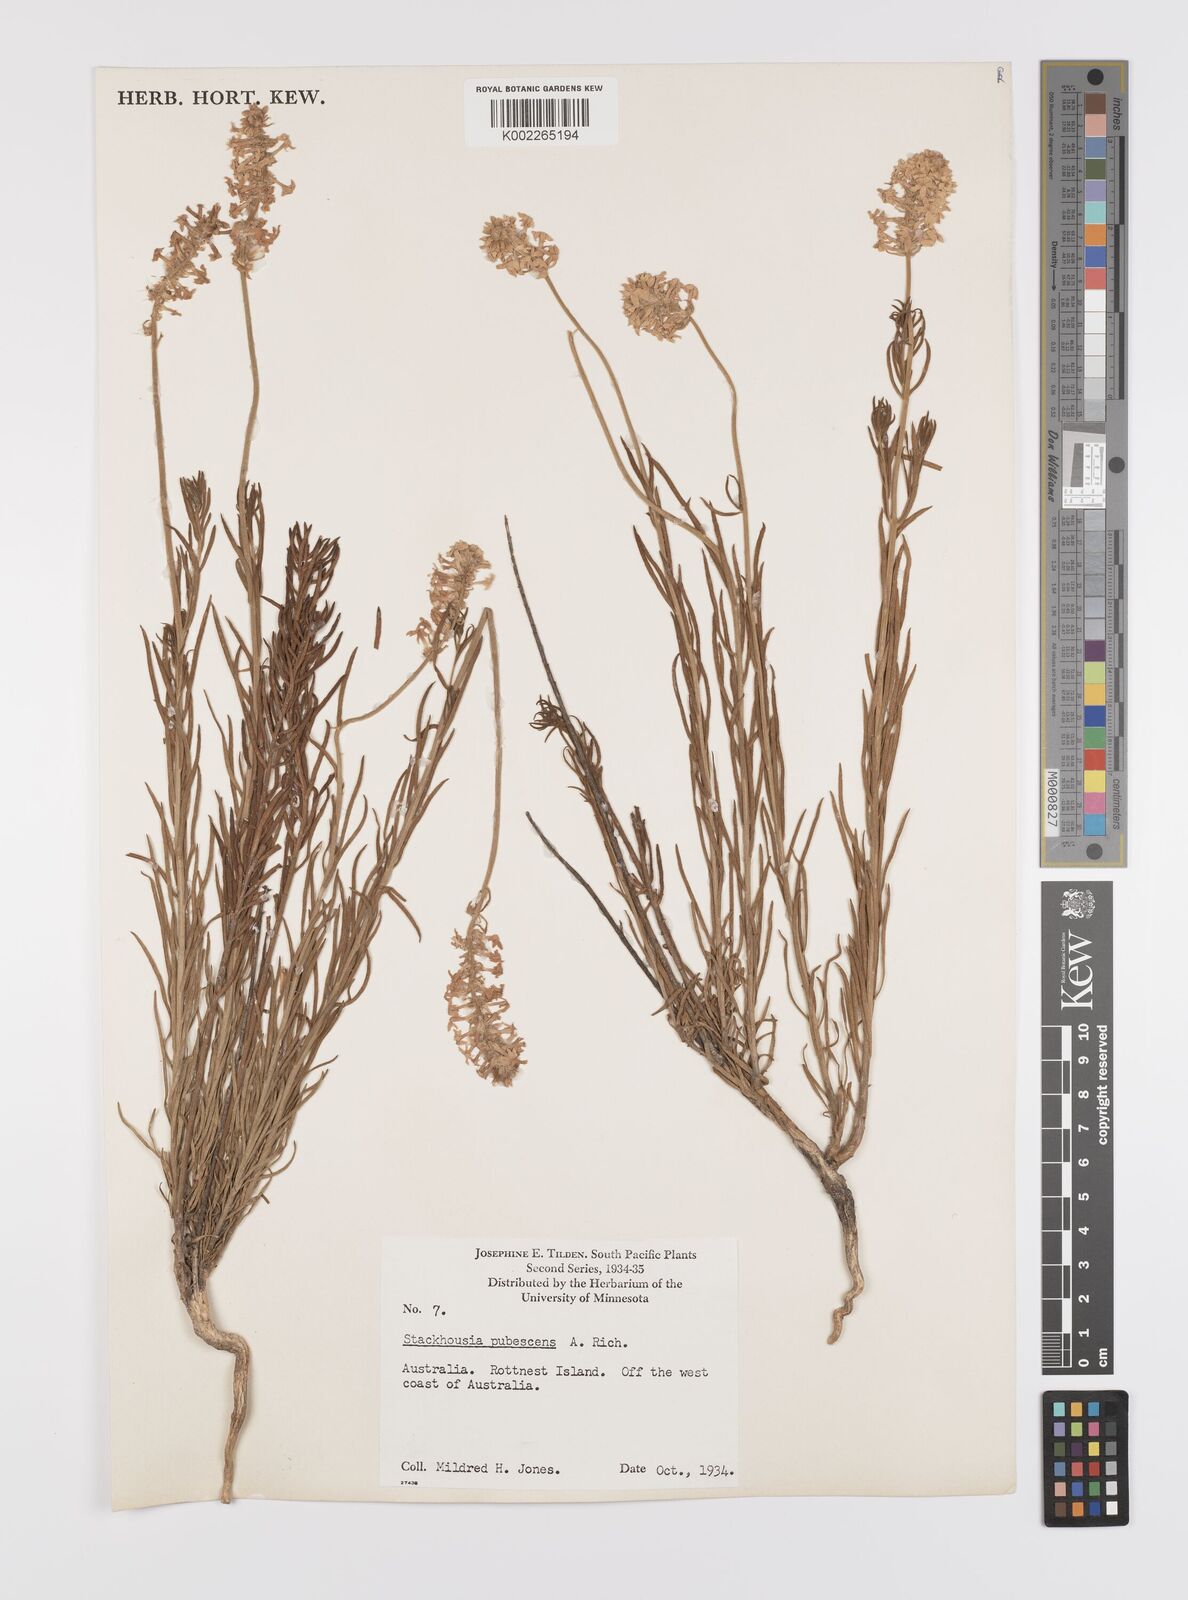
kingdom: Plantae
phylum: Tracheophyta
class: Magnoliopsida
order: Celastrales
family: Celastraceae
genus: Stackhousia
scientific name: Stackhousia monogyna
